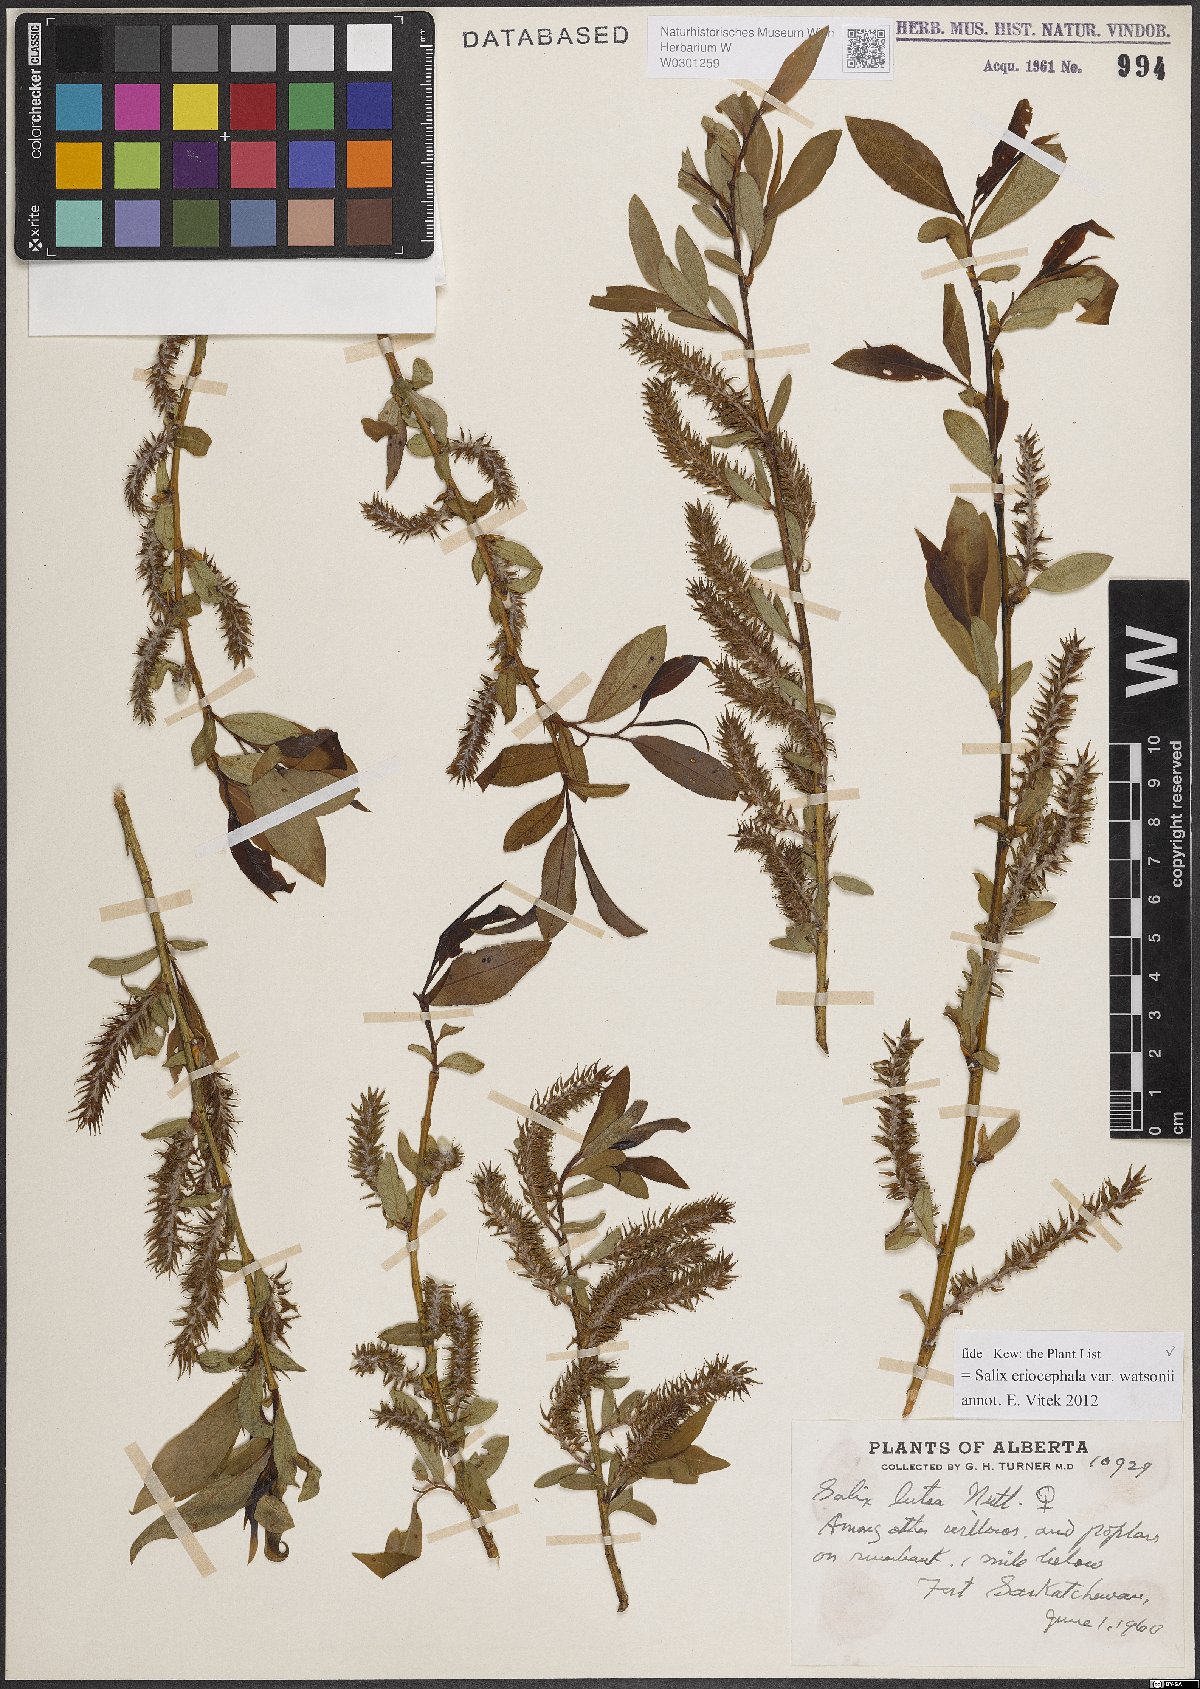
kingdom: Plantae
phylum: Tracheophyta
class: Magnoliopsida
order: Malpighiales
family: Salicaceae
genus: Salix
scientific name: Salix lutea
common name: Yellow willow
